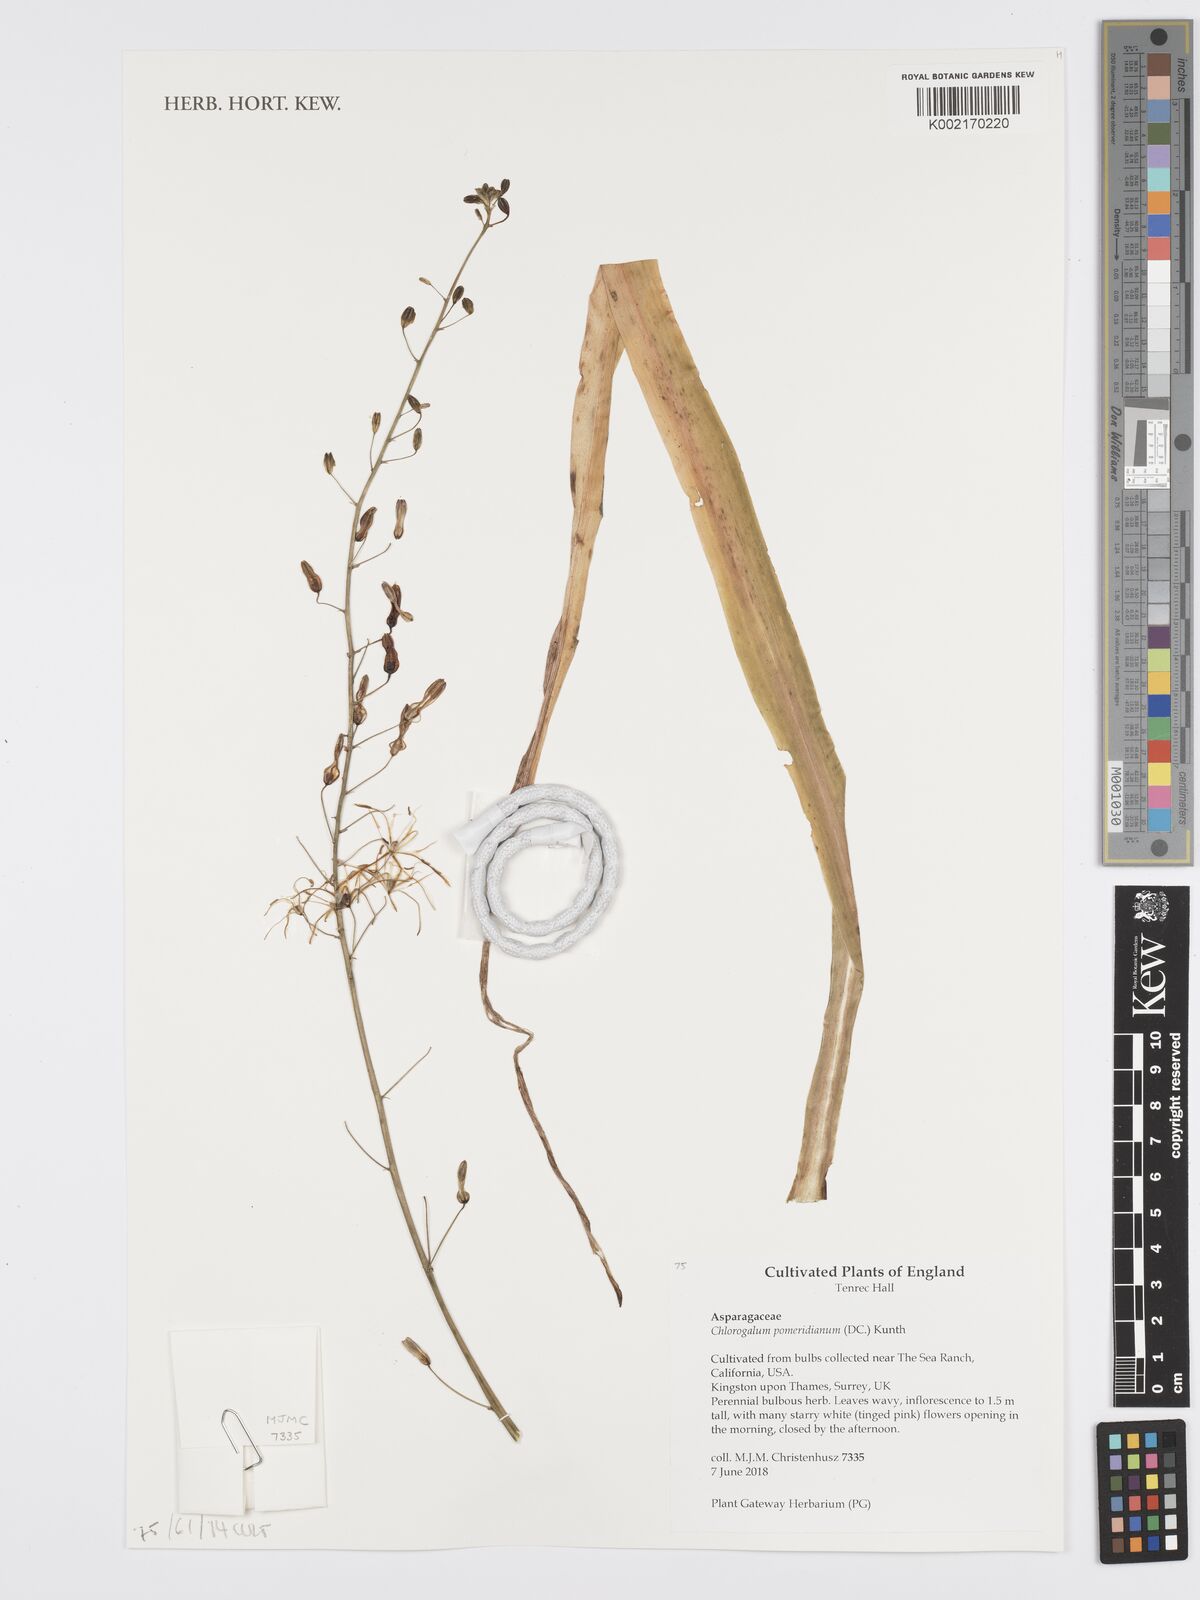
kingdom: Plantae
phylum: Tracheophyta
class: Liliopsida
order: Asparagales
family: Asparagaceae
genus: Chlorogalum
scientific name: Chlorogalum pomeridianum
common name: Amole
